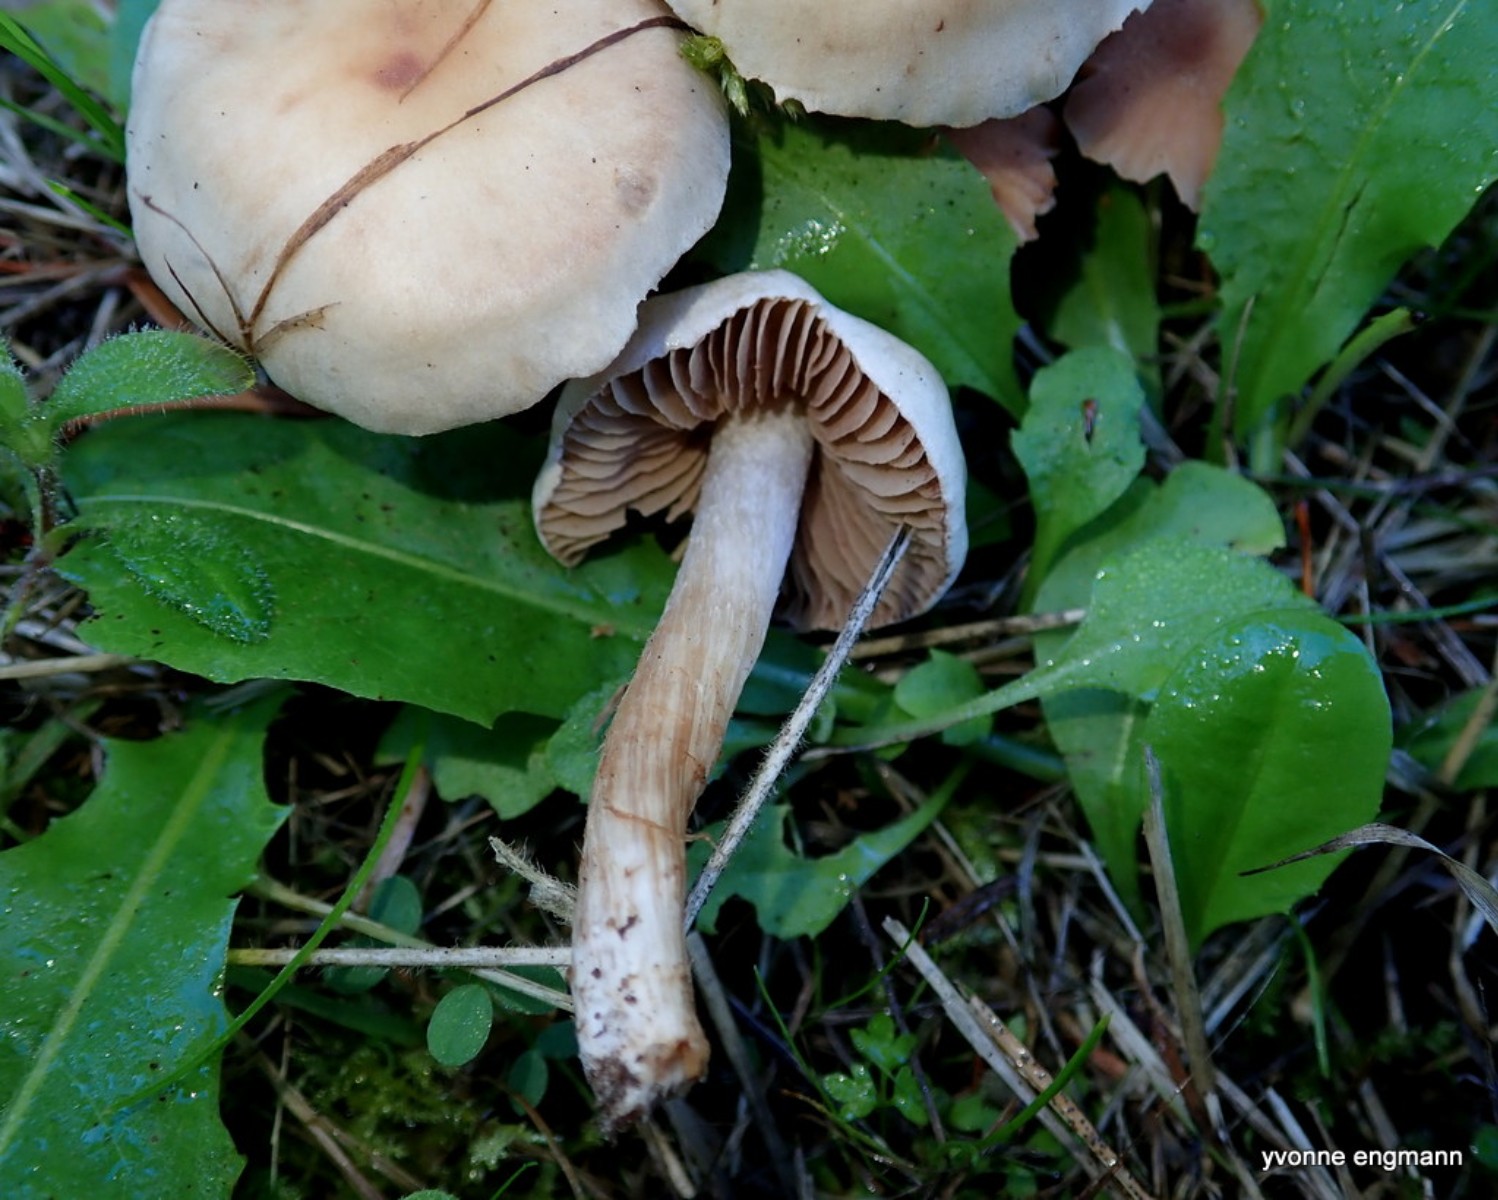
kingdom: Fungi
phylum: Basidiomycota
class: Agaricomycetes
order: Agaricales
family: Hymenogastraceae
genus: Hebeloma
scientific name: Hebeloma sacchariolens
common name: sødtduftende tåreblad
